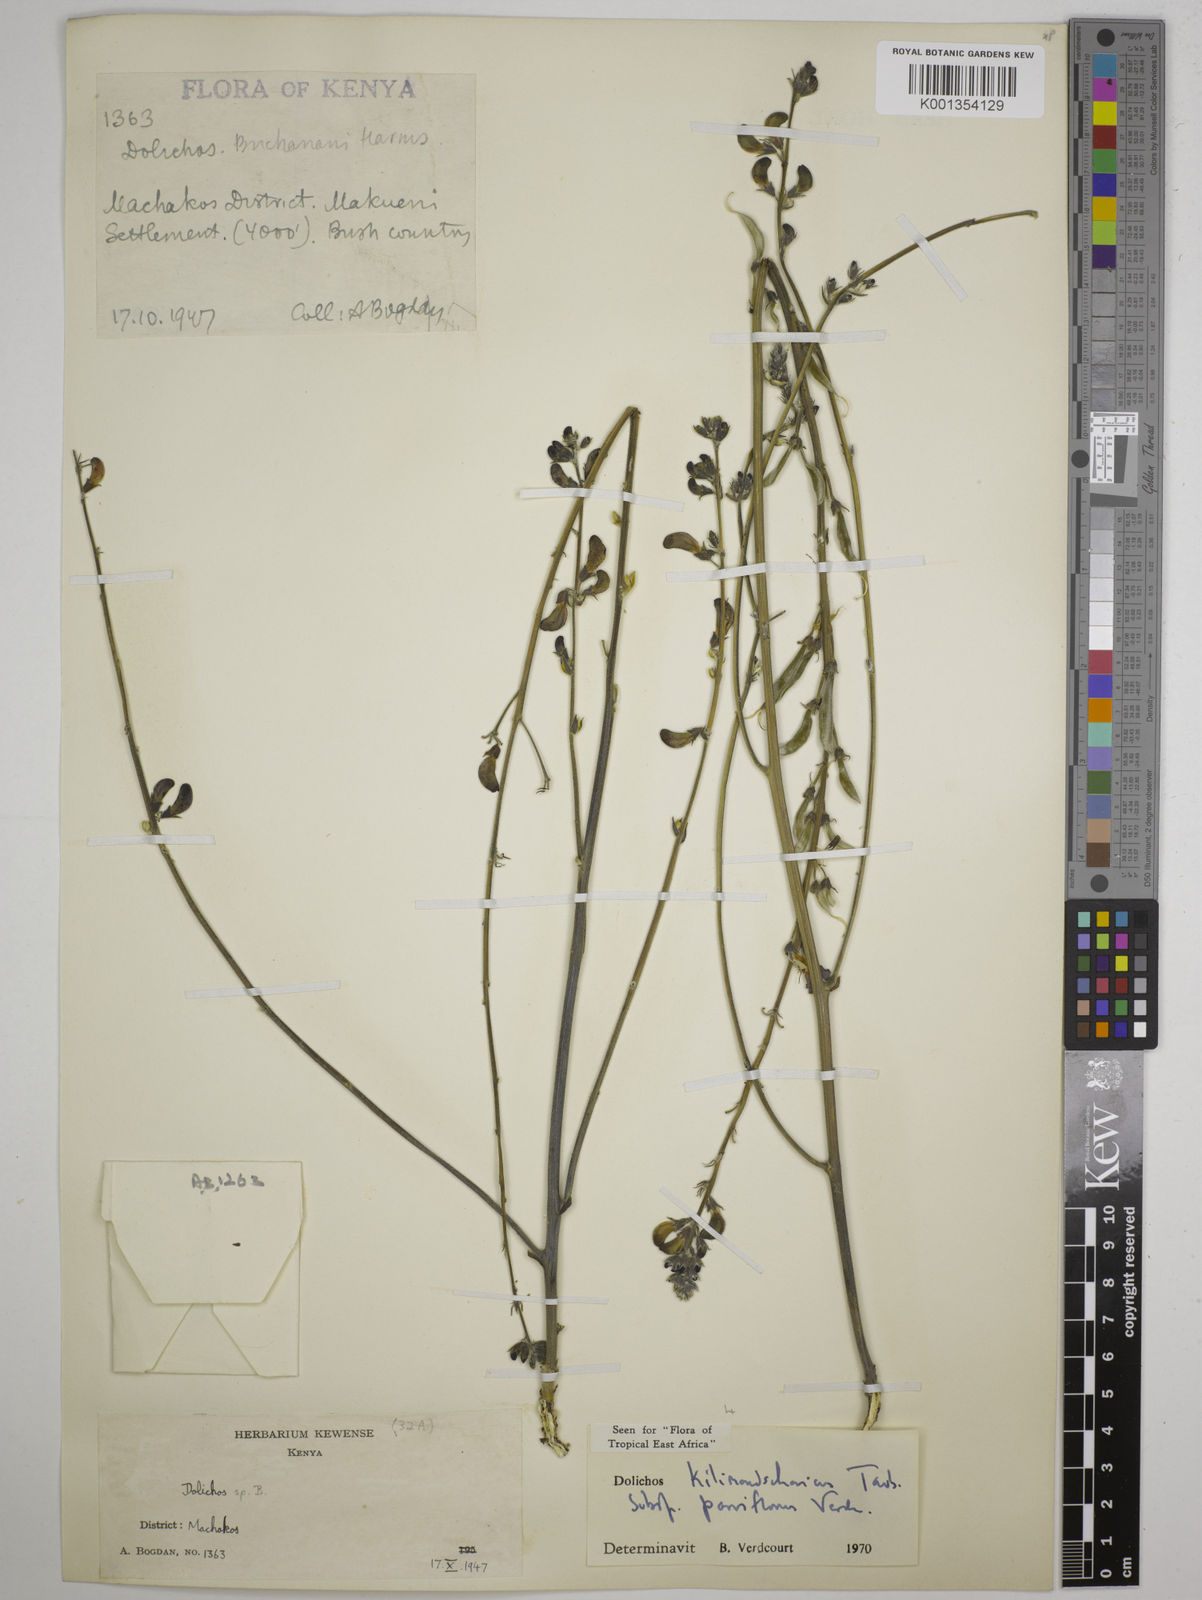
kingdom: Plantae
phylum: Tracheophyta
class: Magnoliopsida
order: Fabales
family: Fabaceae
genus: Dolichos
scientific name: Dolichos
